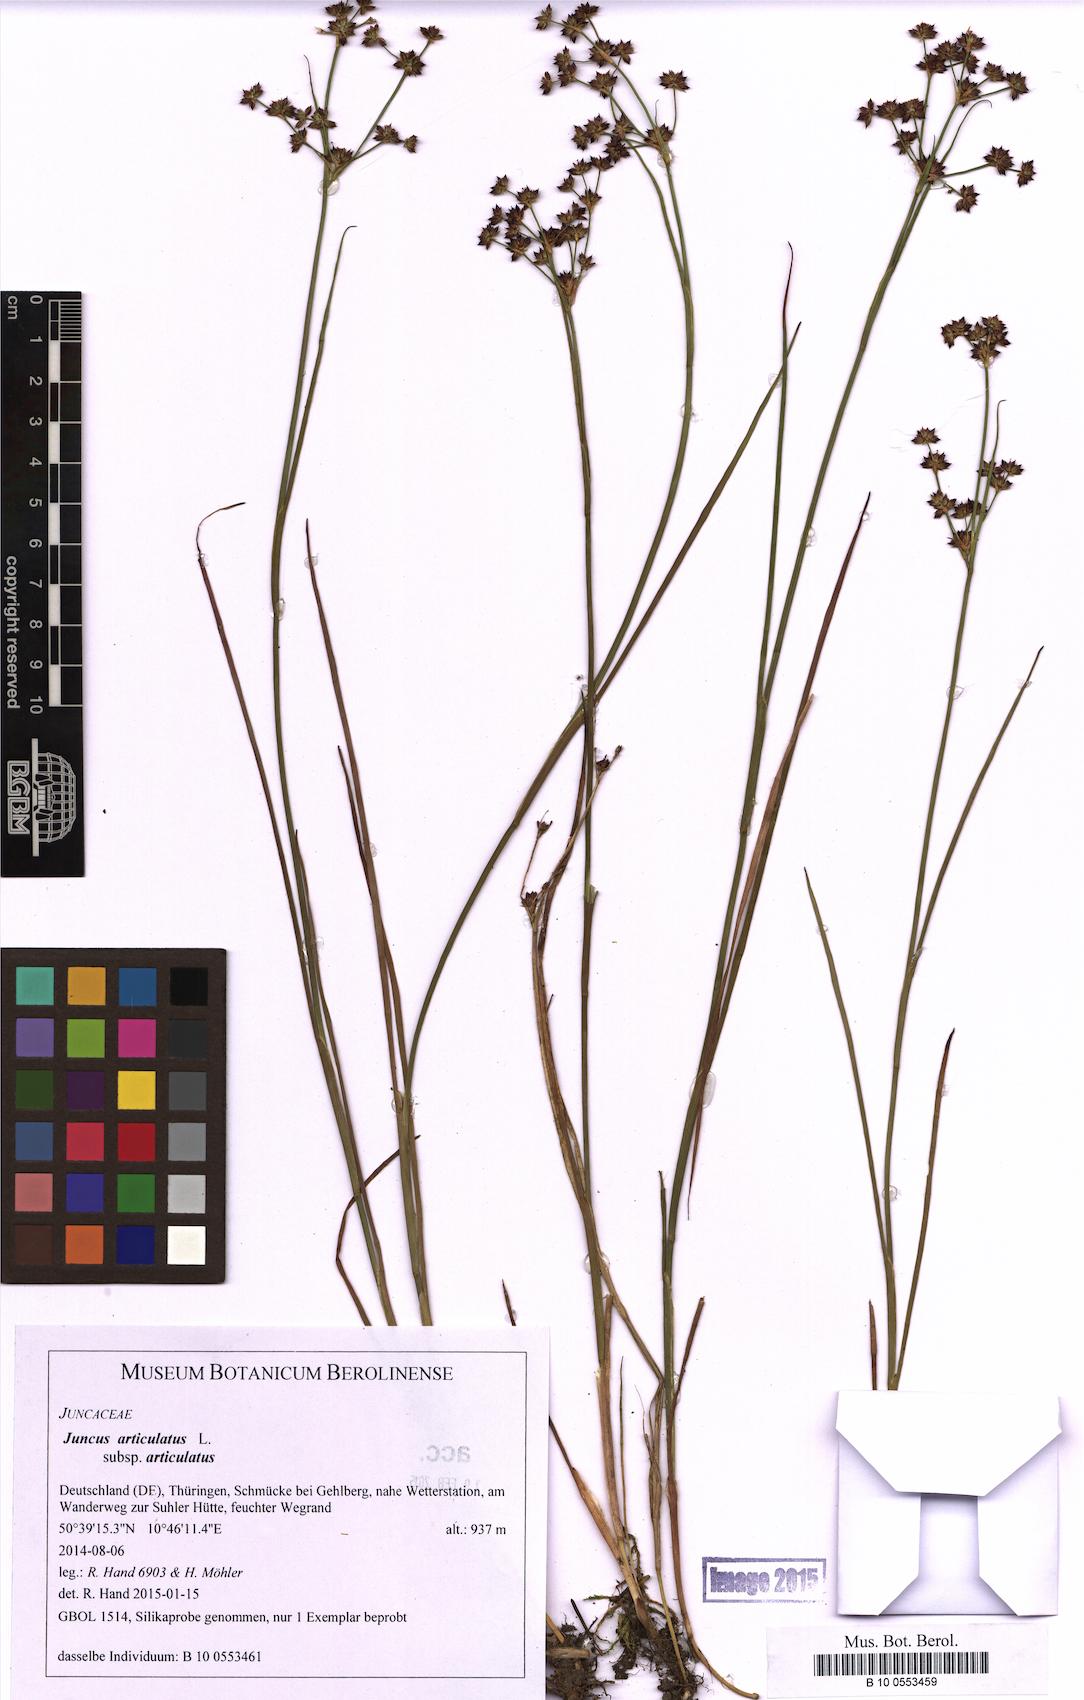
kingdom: Plantae
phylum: Tracheophyta
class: Liliopsida
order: Poales
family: Juncaceae
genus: Juncus
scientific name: Juncus articulatus
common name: Jointed rush
